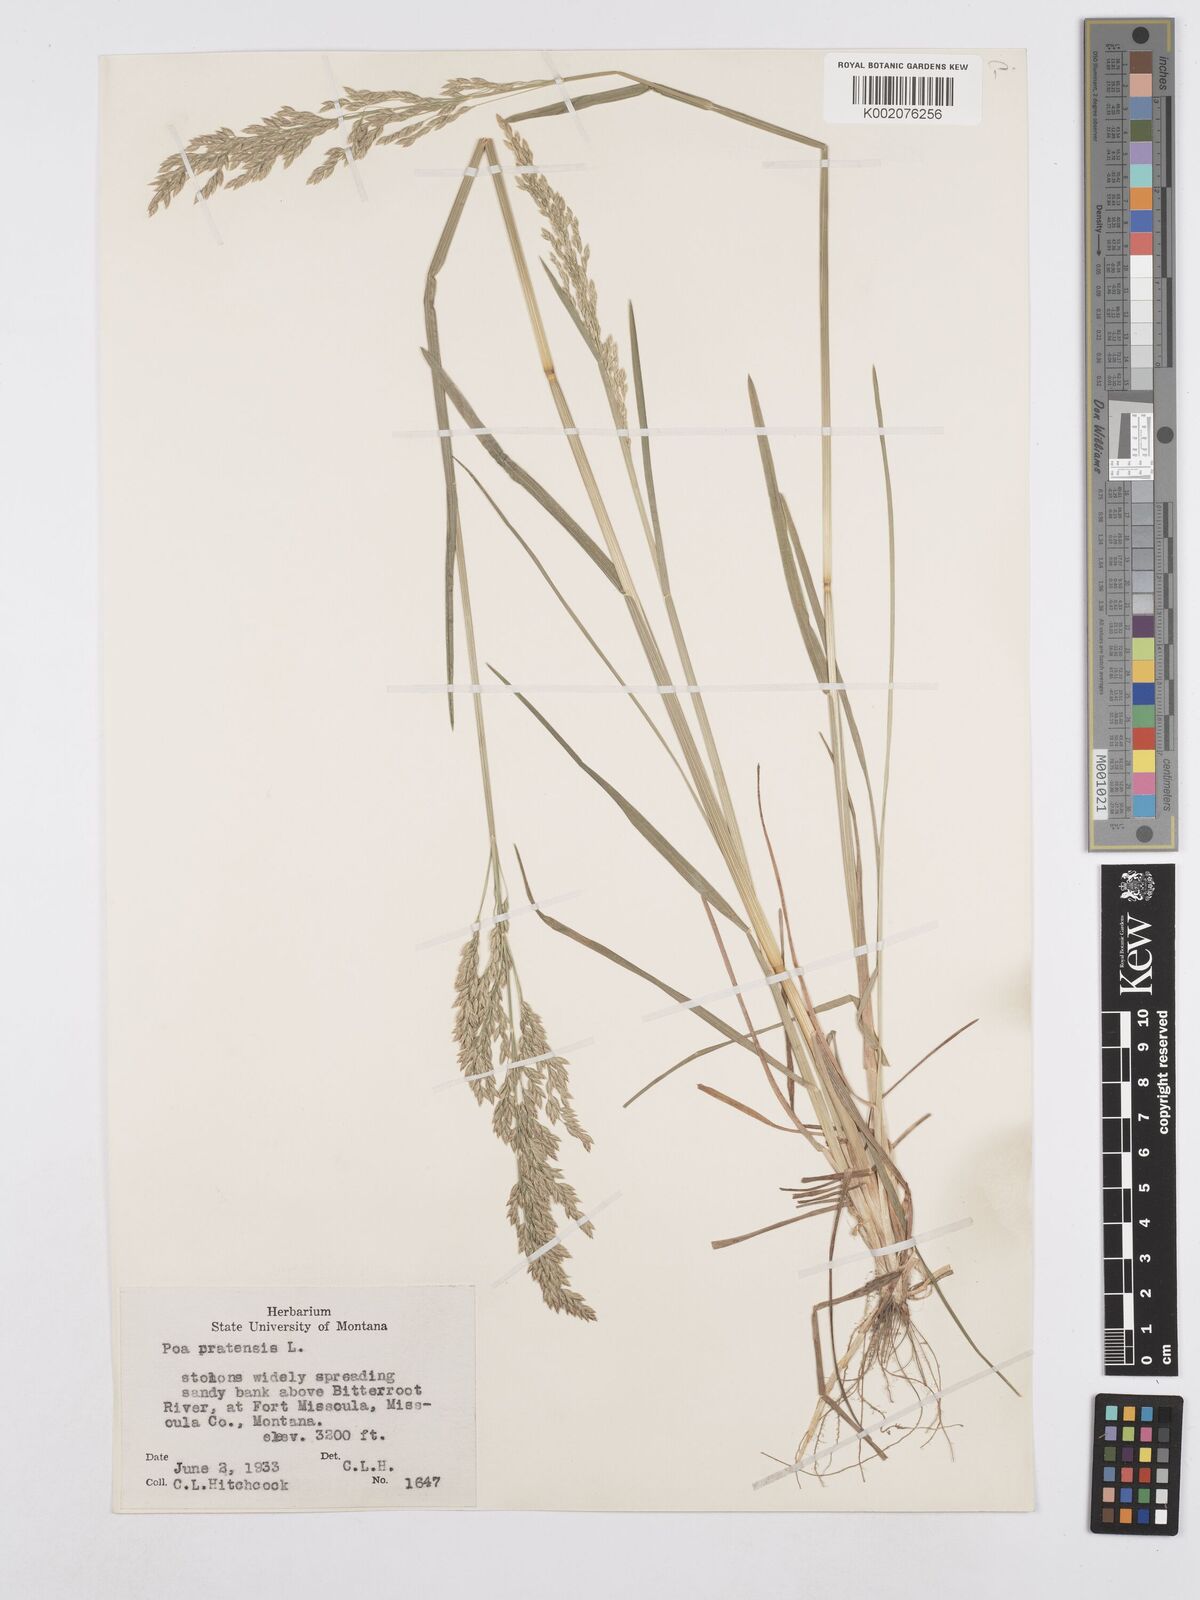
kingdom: Plantae
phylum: Tracheophyta
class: Liliopsida
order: Poales
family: Poaceae
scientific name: Poaceae
